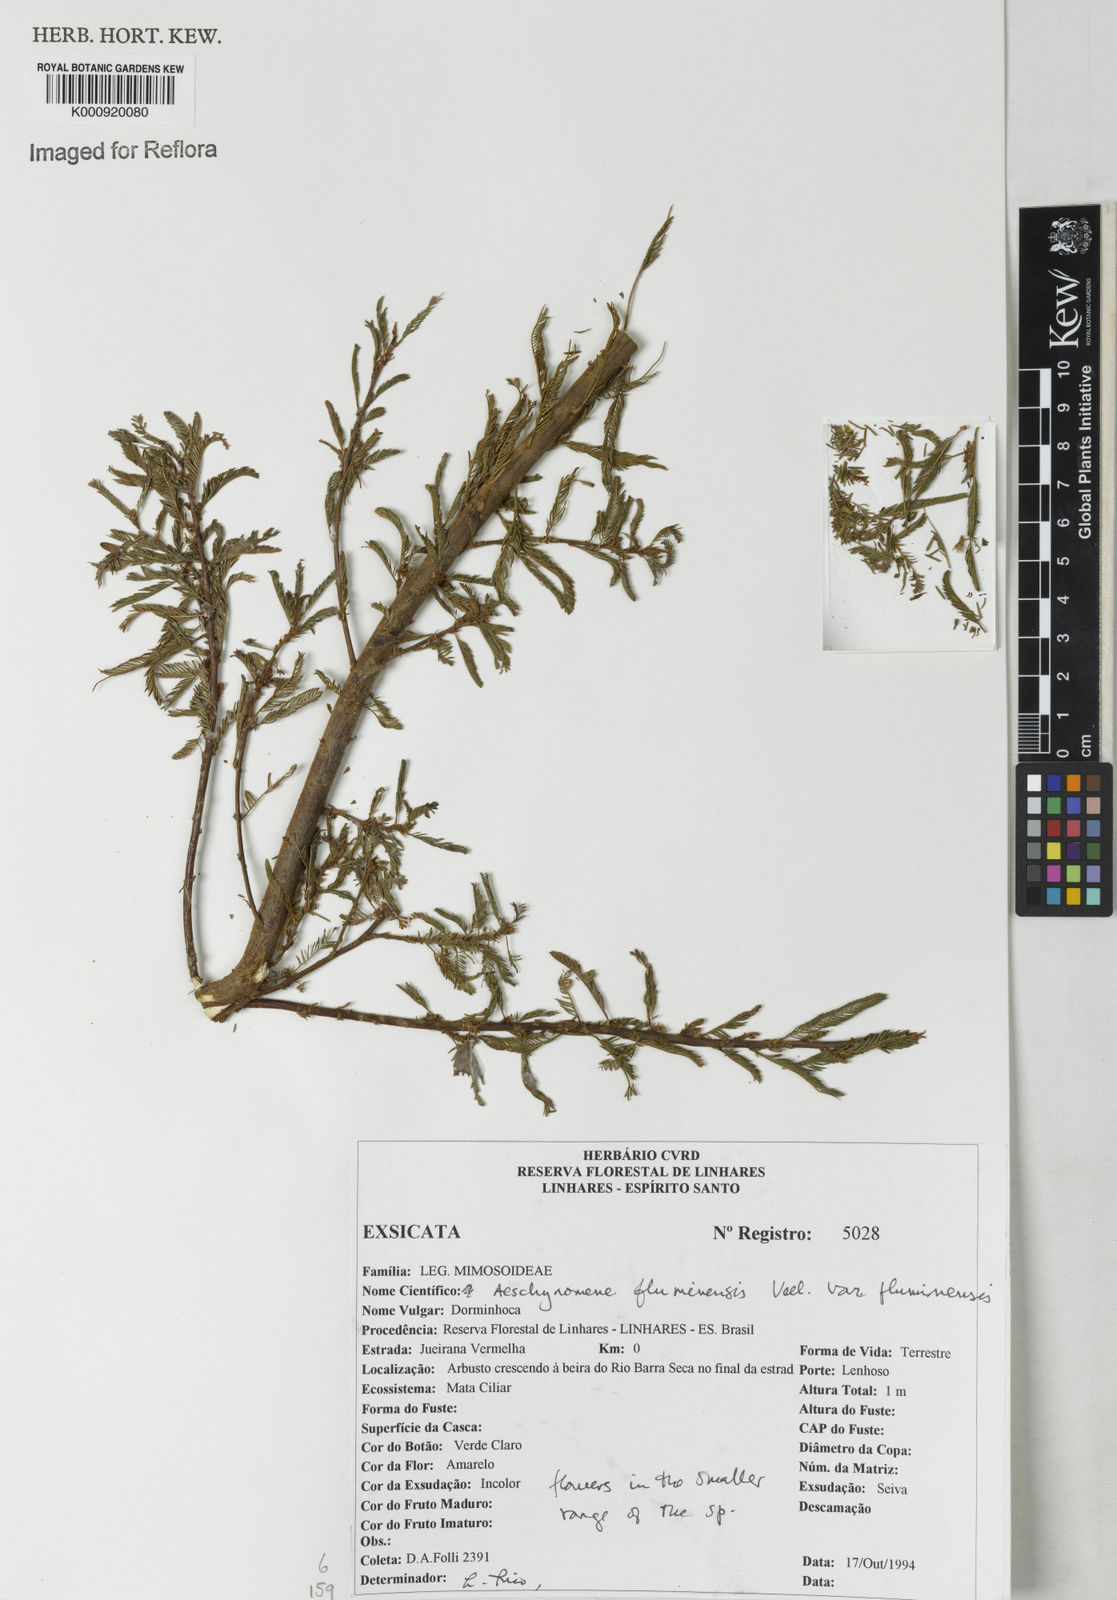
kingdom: Plantae
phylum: Tracheophyta
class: Magnoliopsida
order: Fabales
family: Fabaceae
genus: Aeschynomene
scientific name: Aeschynomene fluminensis
